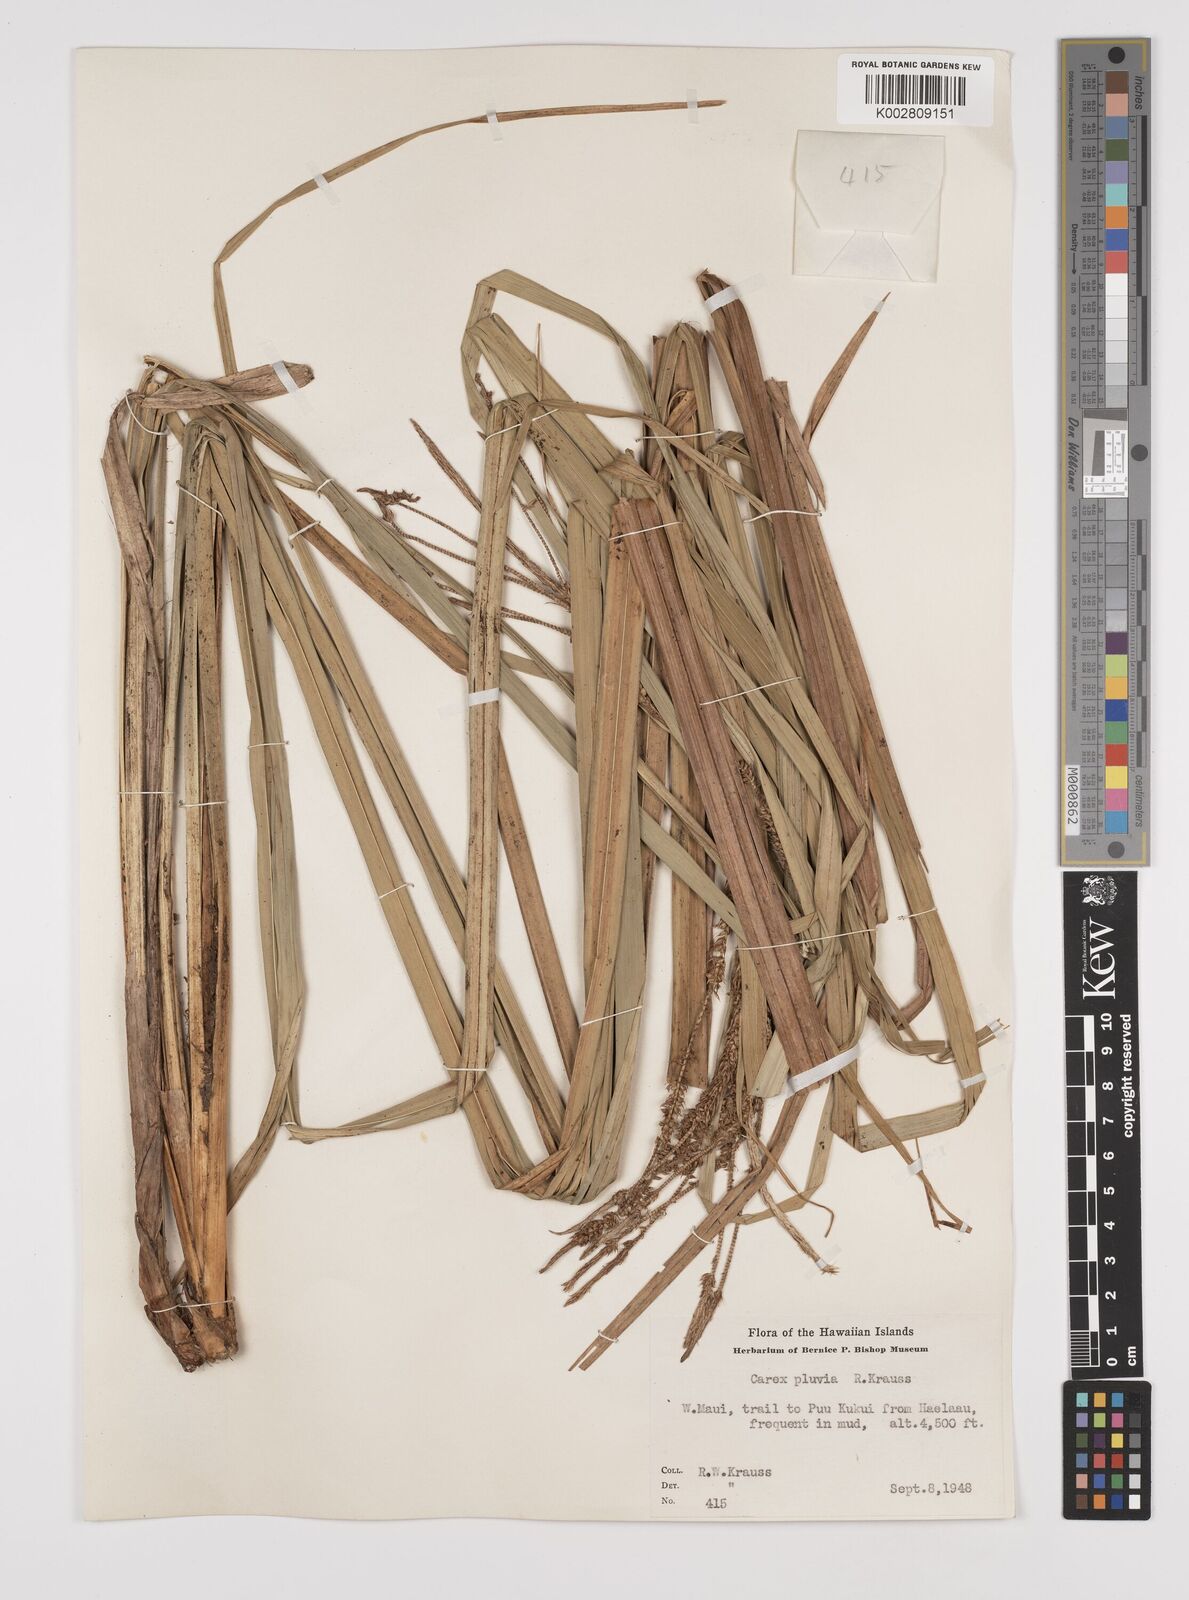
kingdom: Plantae
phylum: Tracheophyta
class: Liliopsida
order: Poales
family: Cyperaceae
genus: Carex
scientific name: Carex alligata
